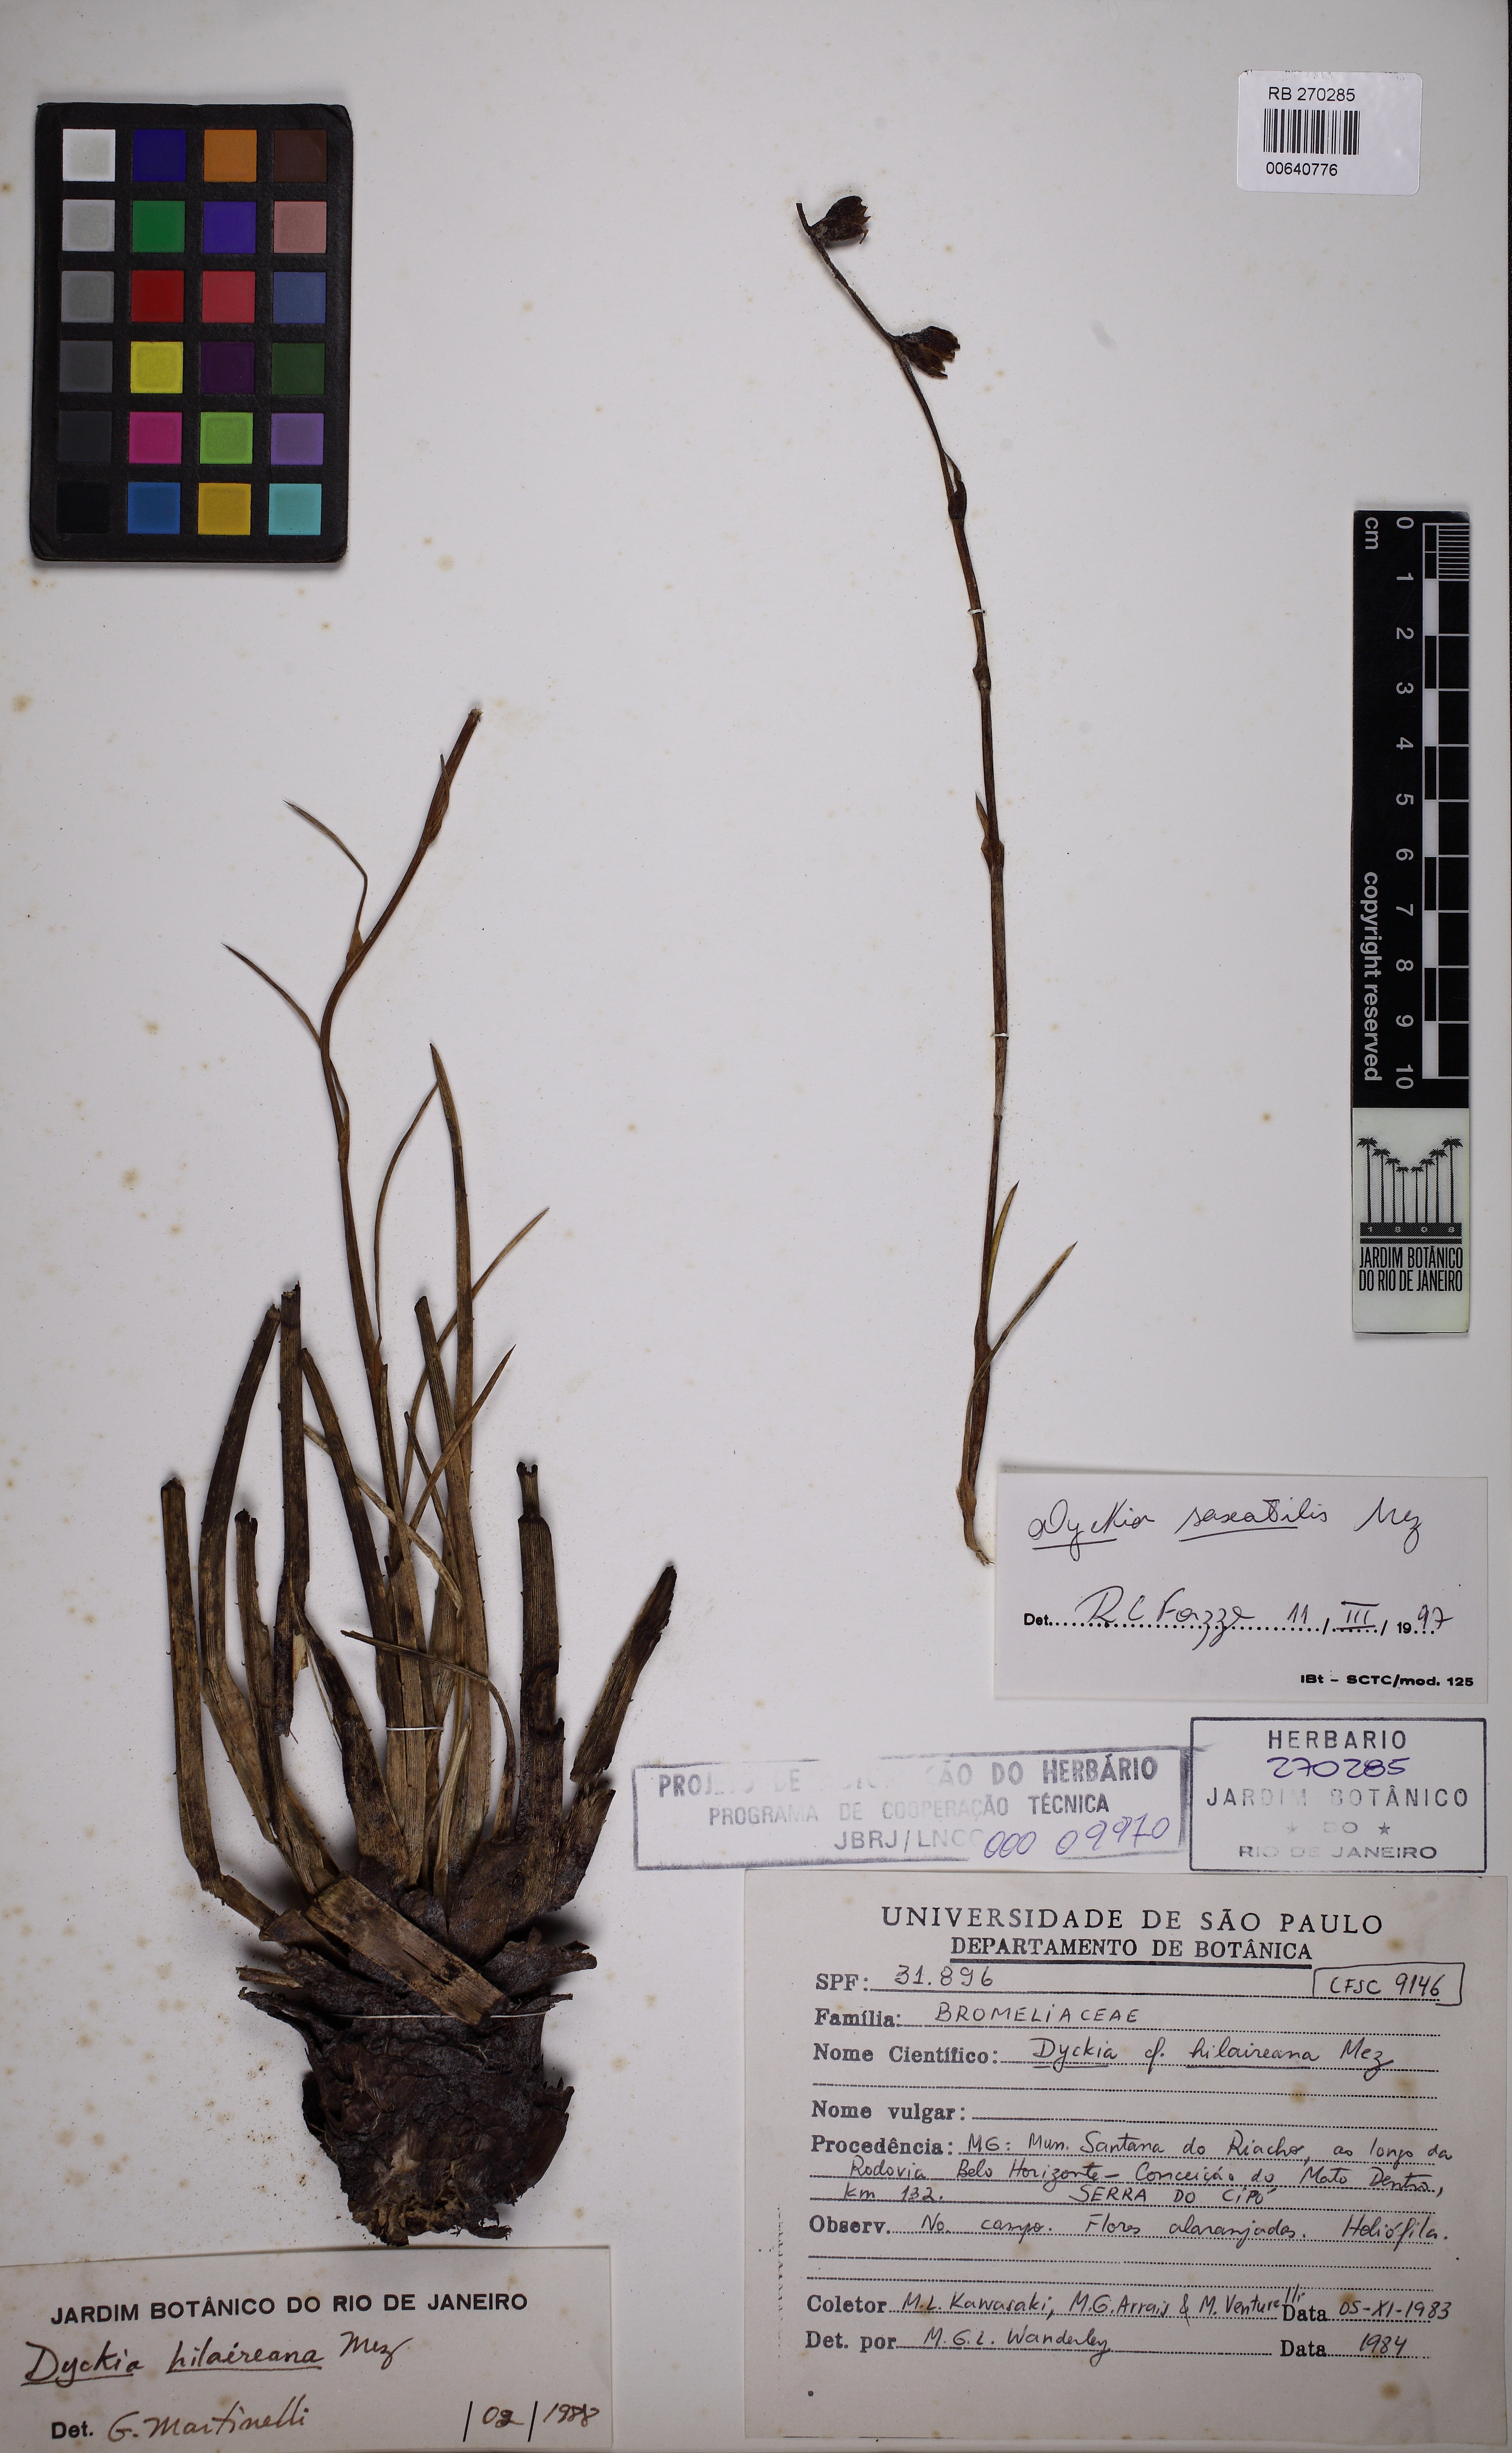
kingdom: Plantae
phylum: Tracheophyta
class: Liliopsida
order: Poales
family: Bromeliaceae
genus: Dyckia
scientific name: Dyckia saxatilis
